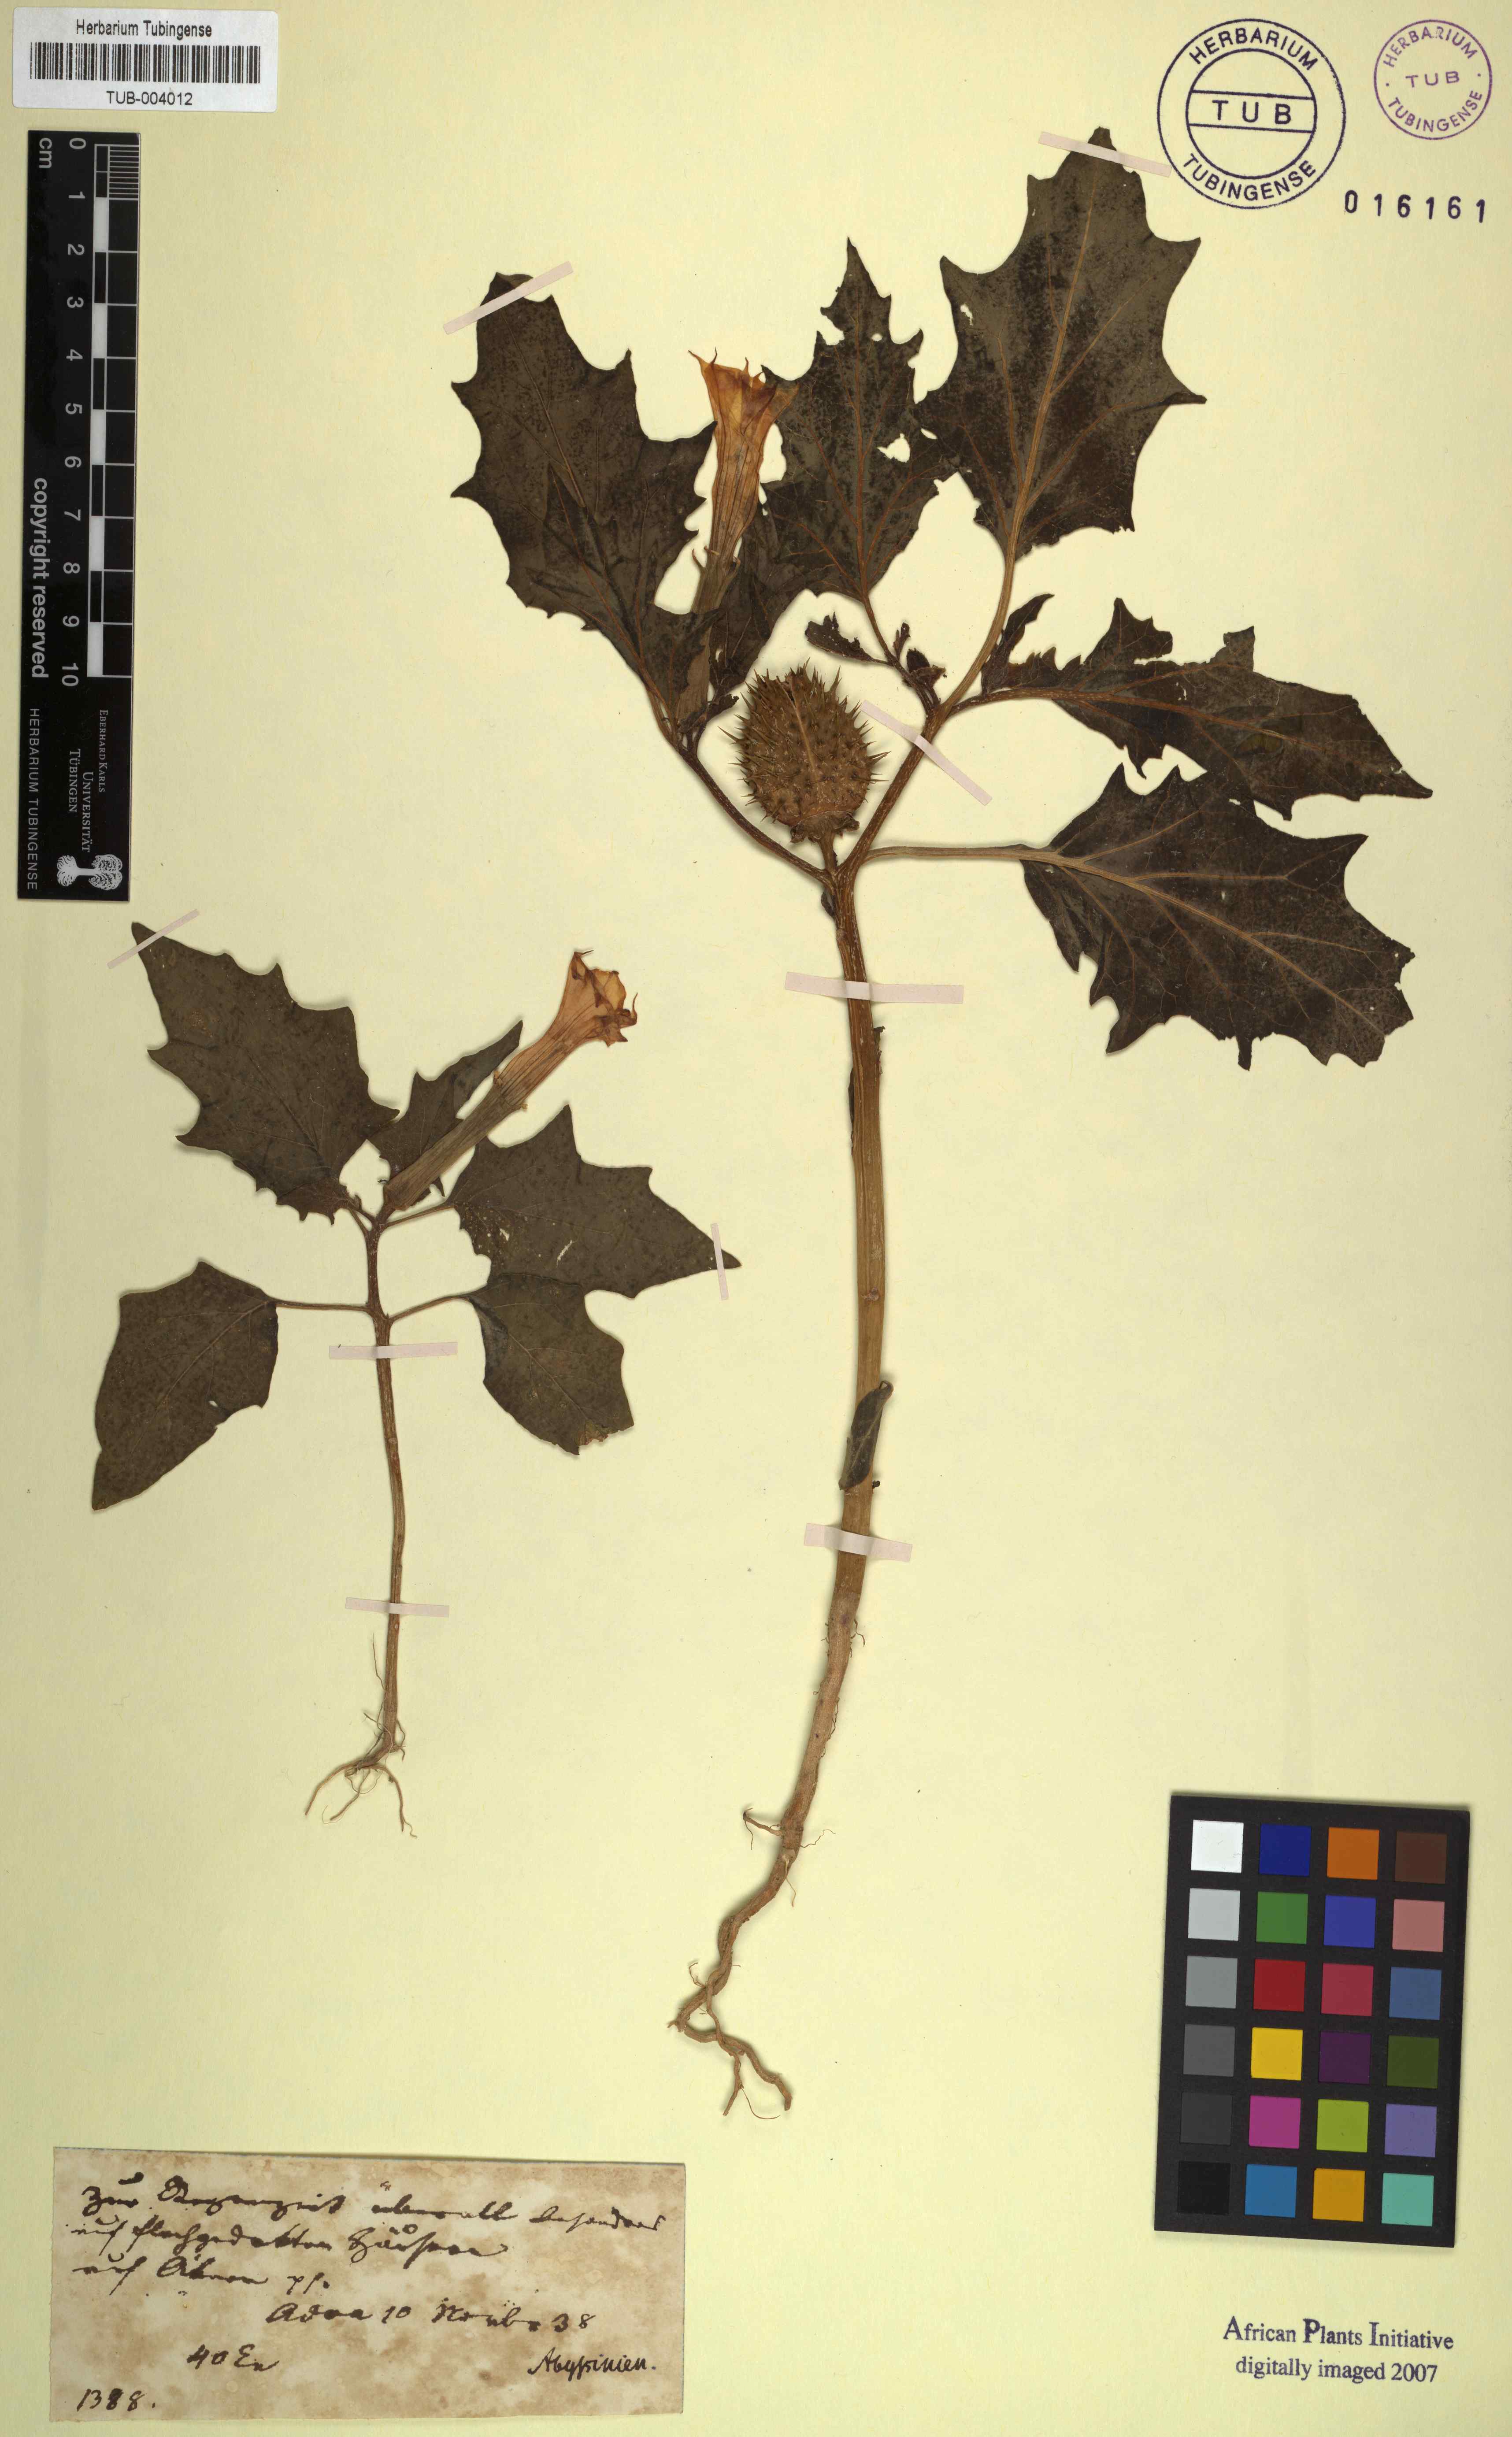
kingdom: Plantae
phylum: Tracheophyta
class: Magnoliopsida
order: Solanales
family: Solanaceae
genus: Datura
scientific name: Datura
